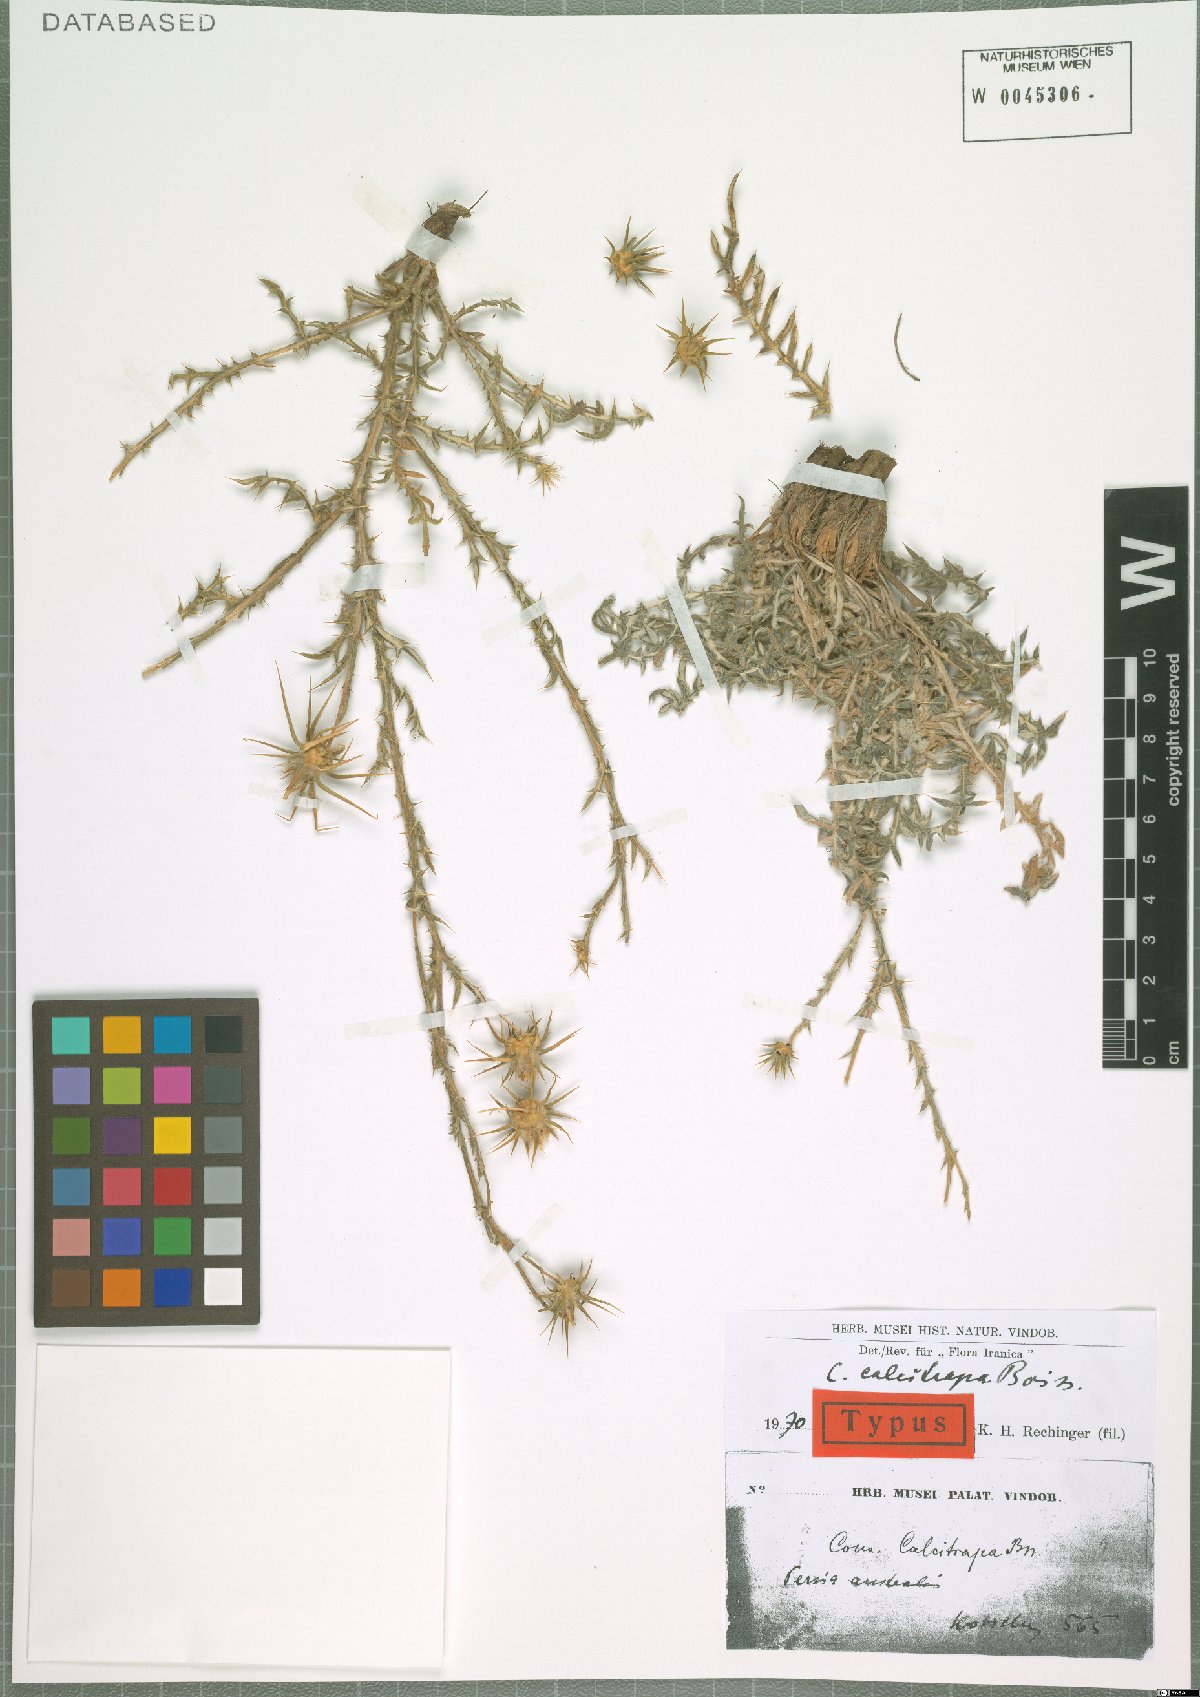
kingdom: Plantae
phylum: Tracheophyta
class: Magnoliopsida
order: Asterales
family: Asteraceae
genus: Cousinia
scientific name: Cousinia calcitrapa
